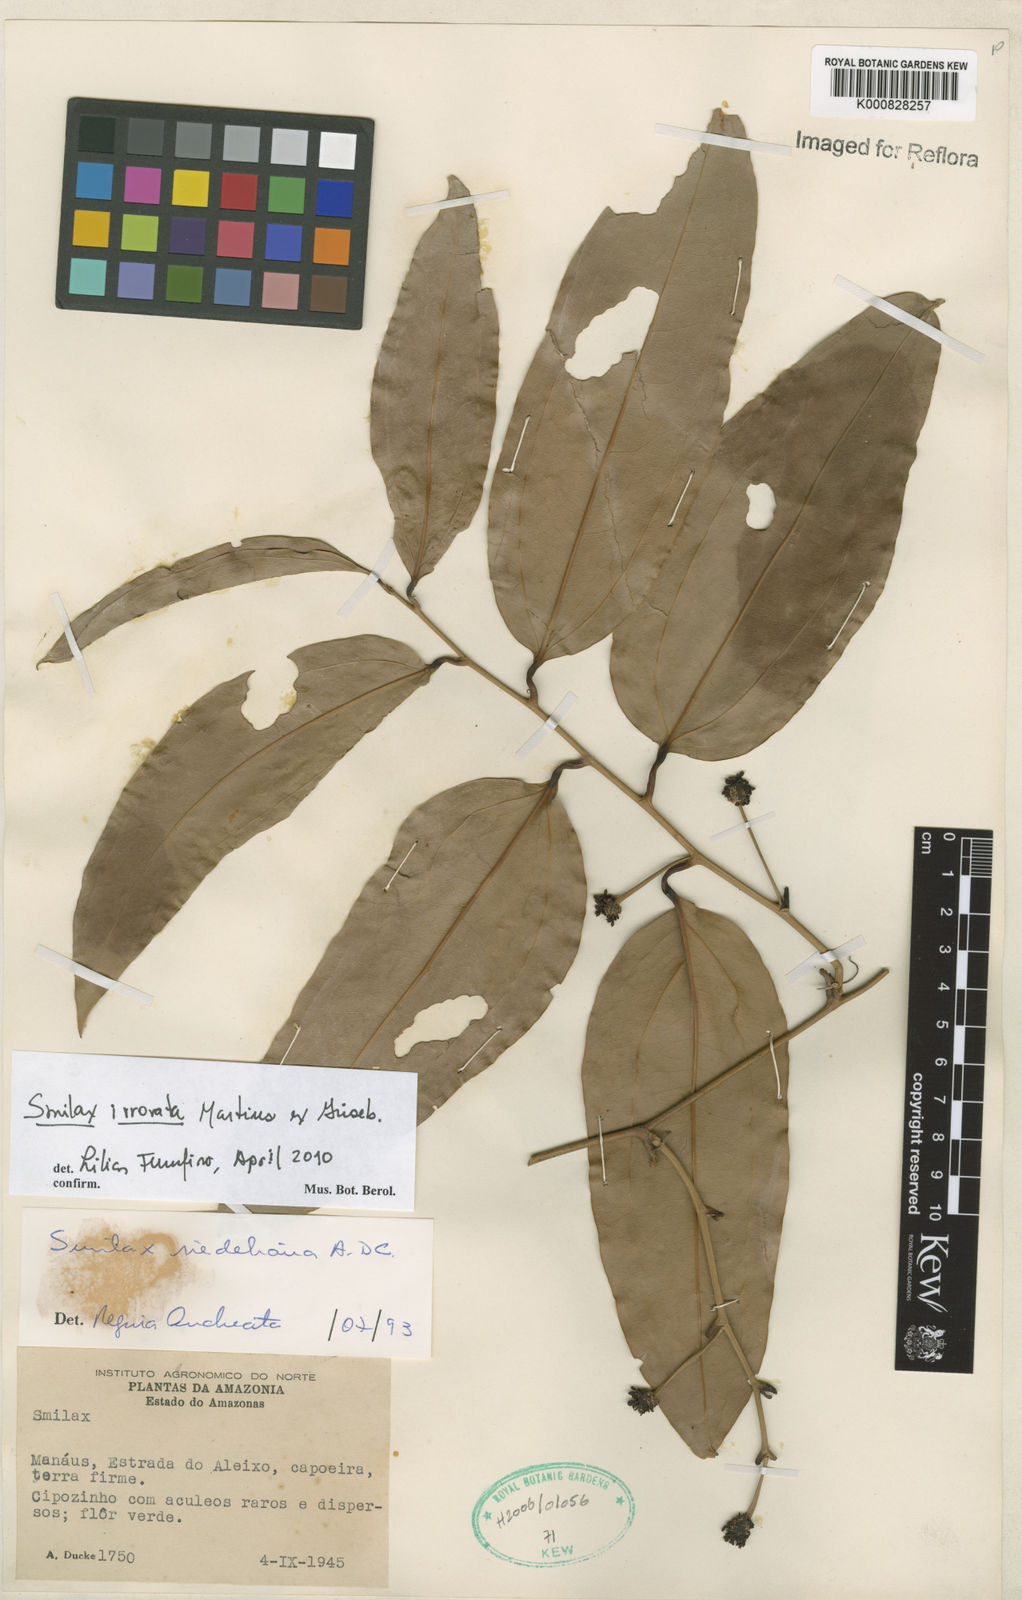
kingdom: Plantae
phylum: Tracheophyta
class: Liliopsida
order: Liliales
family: Smilacaceae
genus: Smilax
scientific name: Smilax irrorata
